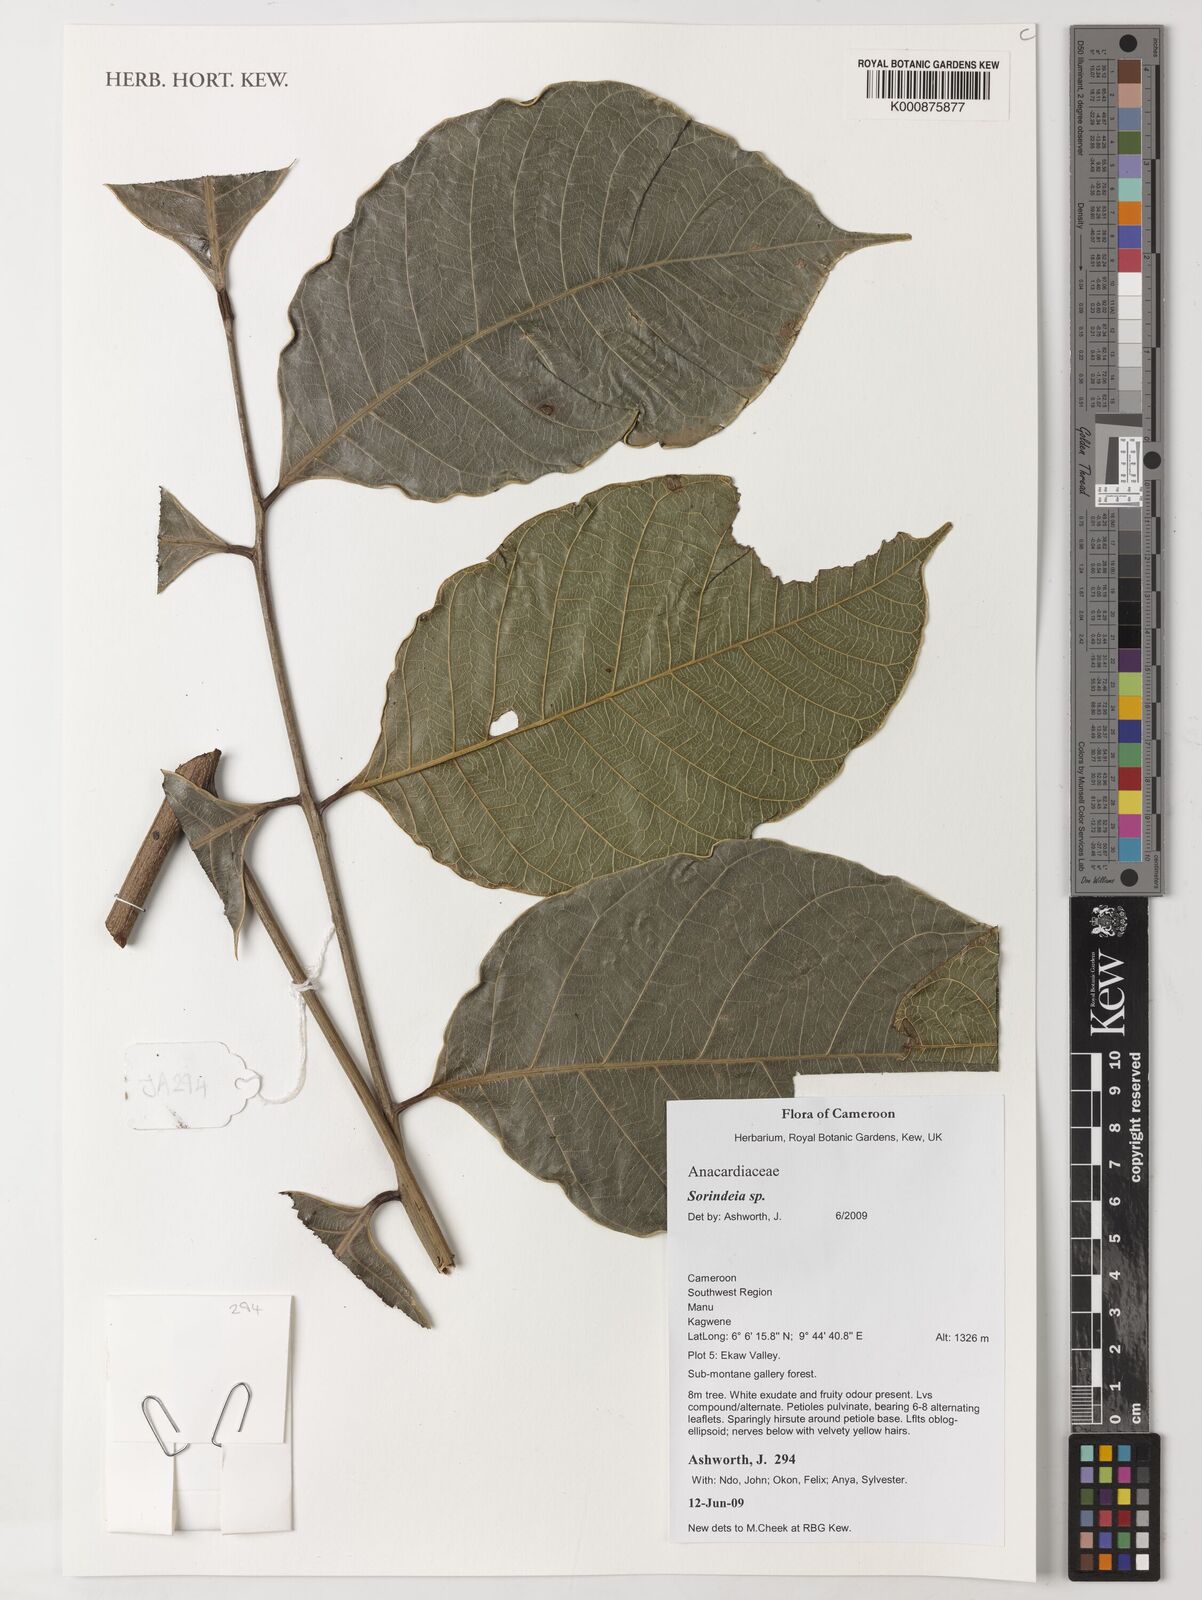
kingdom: Plantae
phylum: Tracheophyta
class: Magnoliopsida
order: Sapindales
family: Anacardiaceae
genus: Sorindeia
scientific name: Sorindeia
